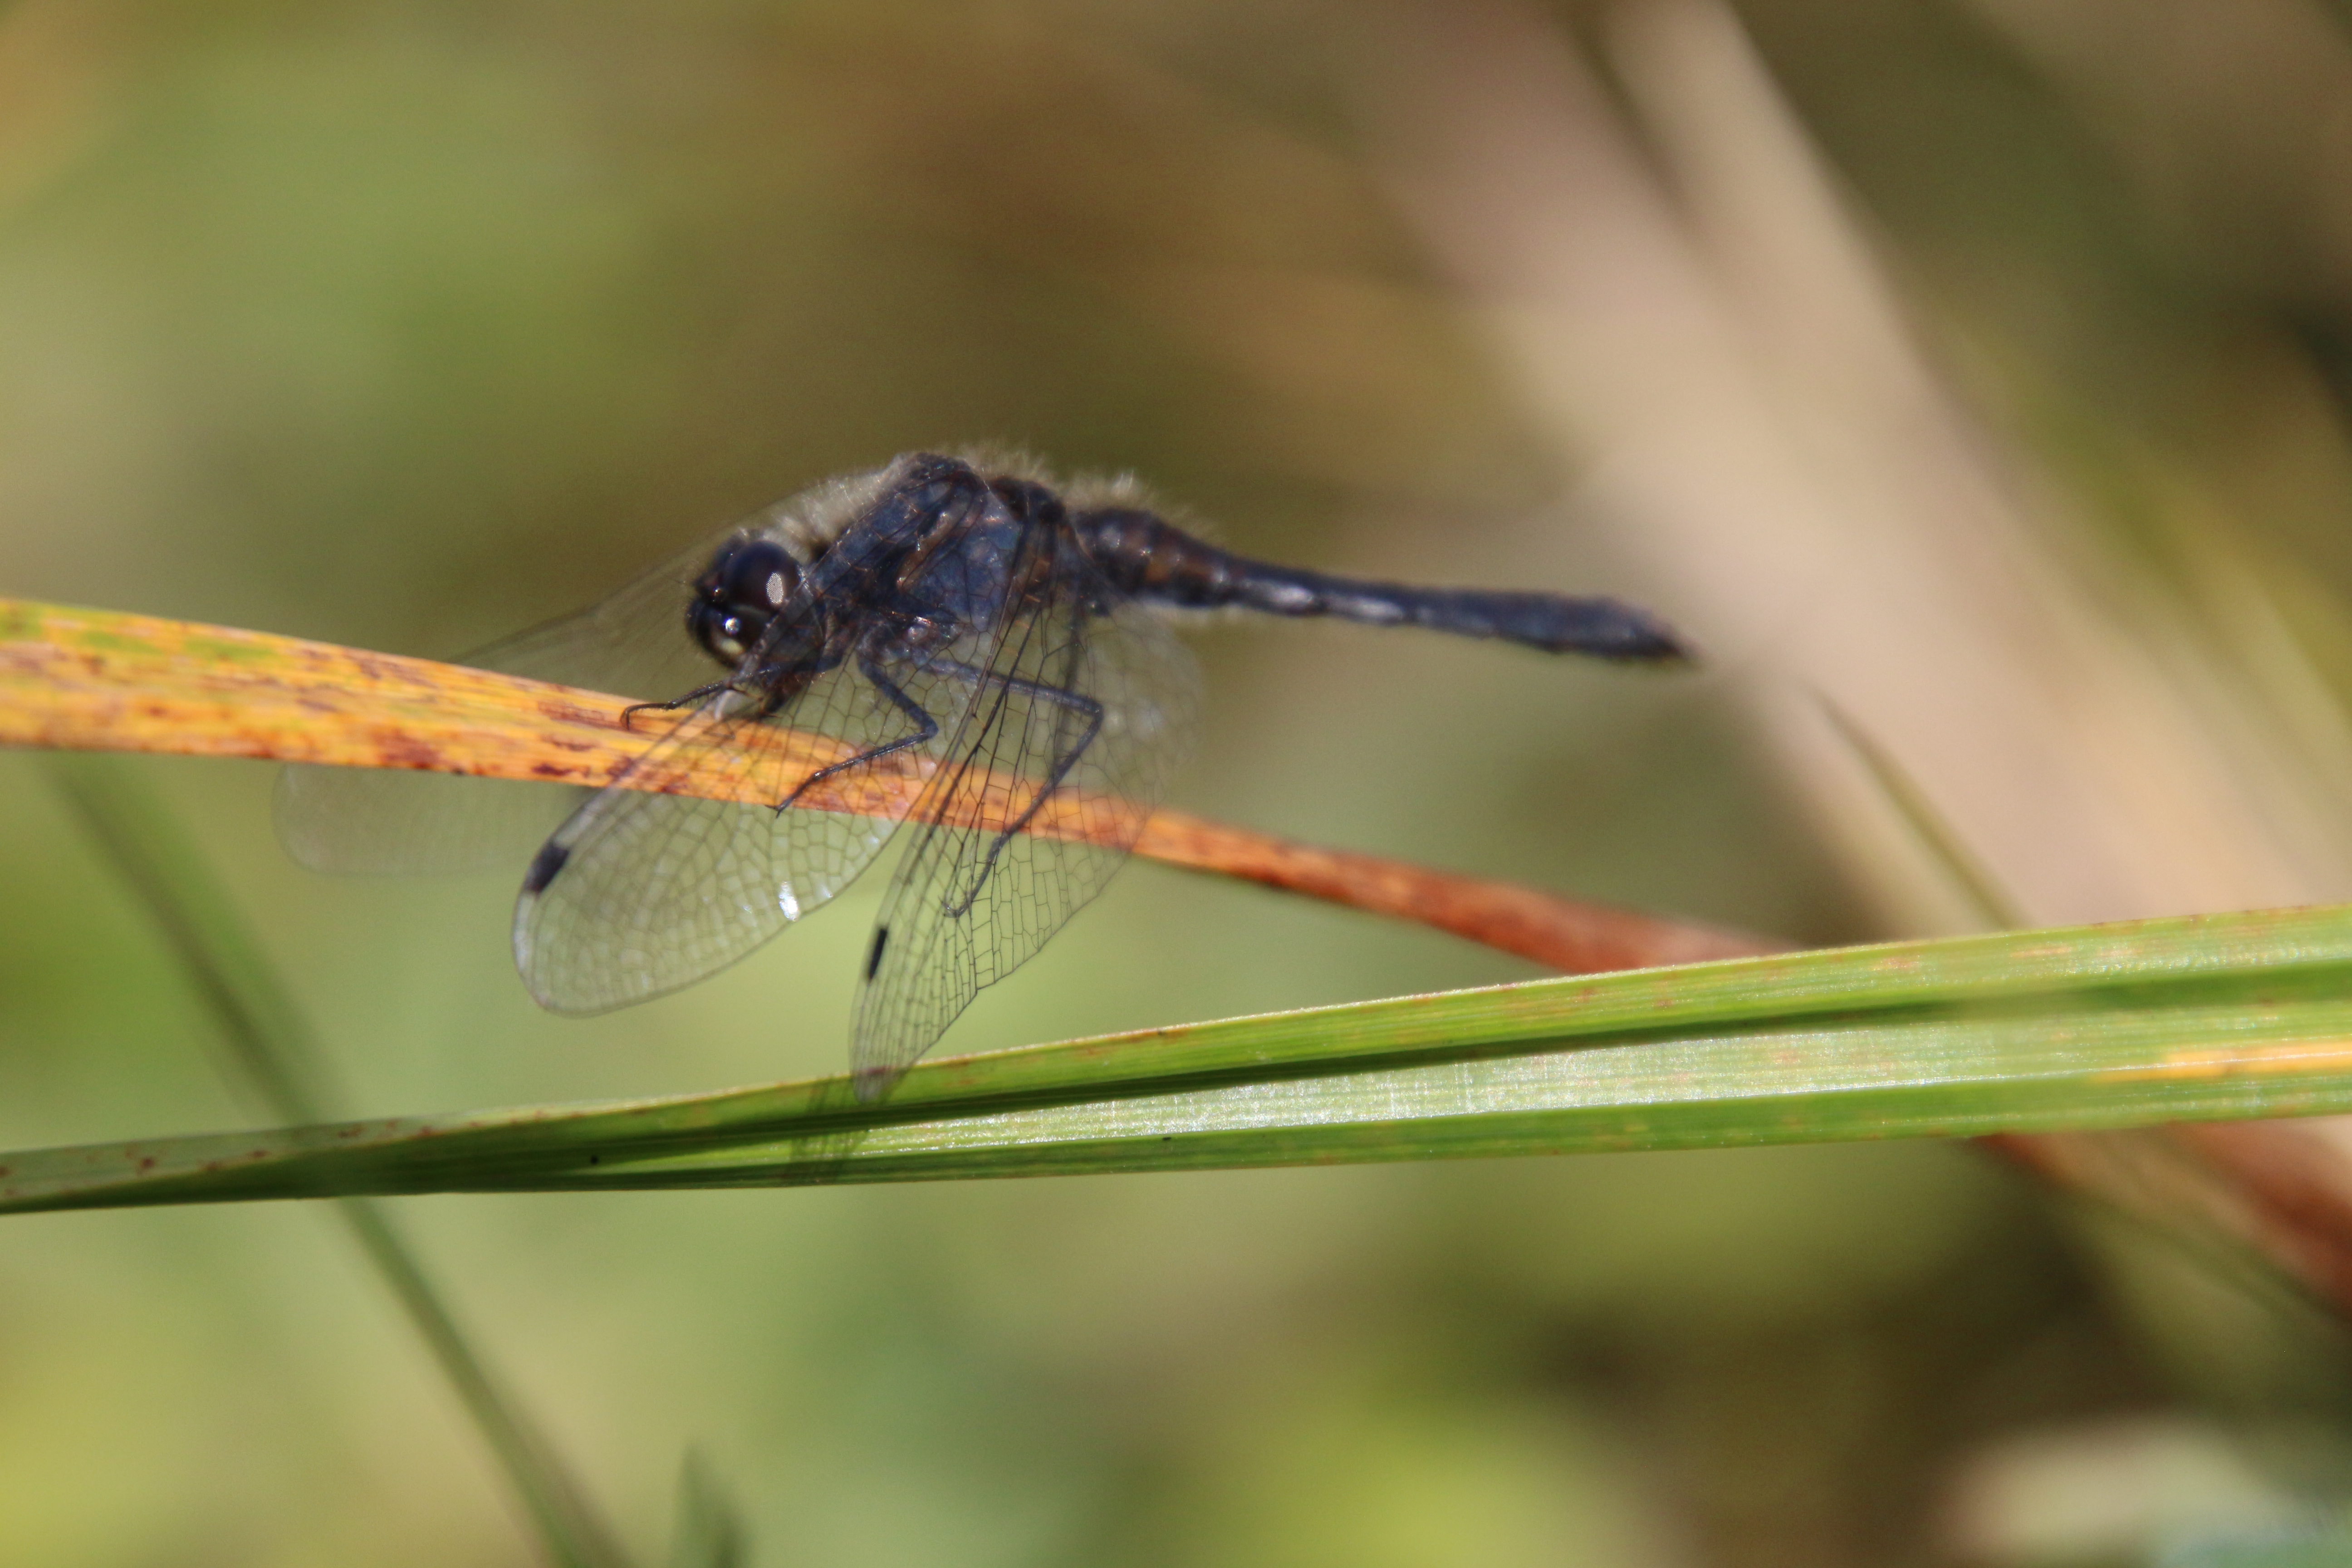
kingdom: Animalia
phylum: Arthropoda
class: Insecta
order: Odonata
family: Libellulidae
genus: Sympetrum
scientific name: Sympetrum danae
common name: Black darter
